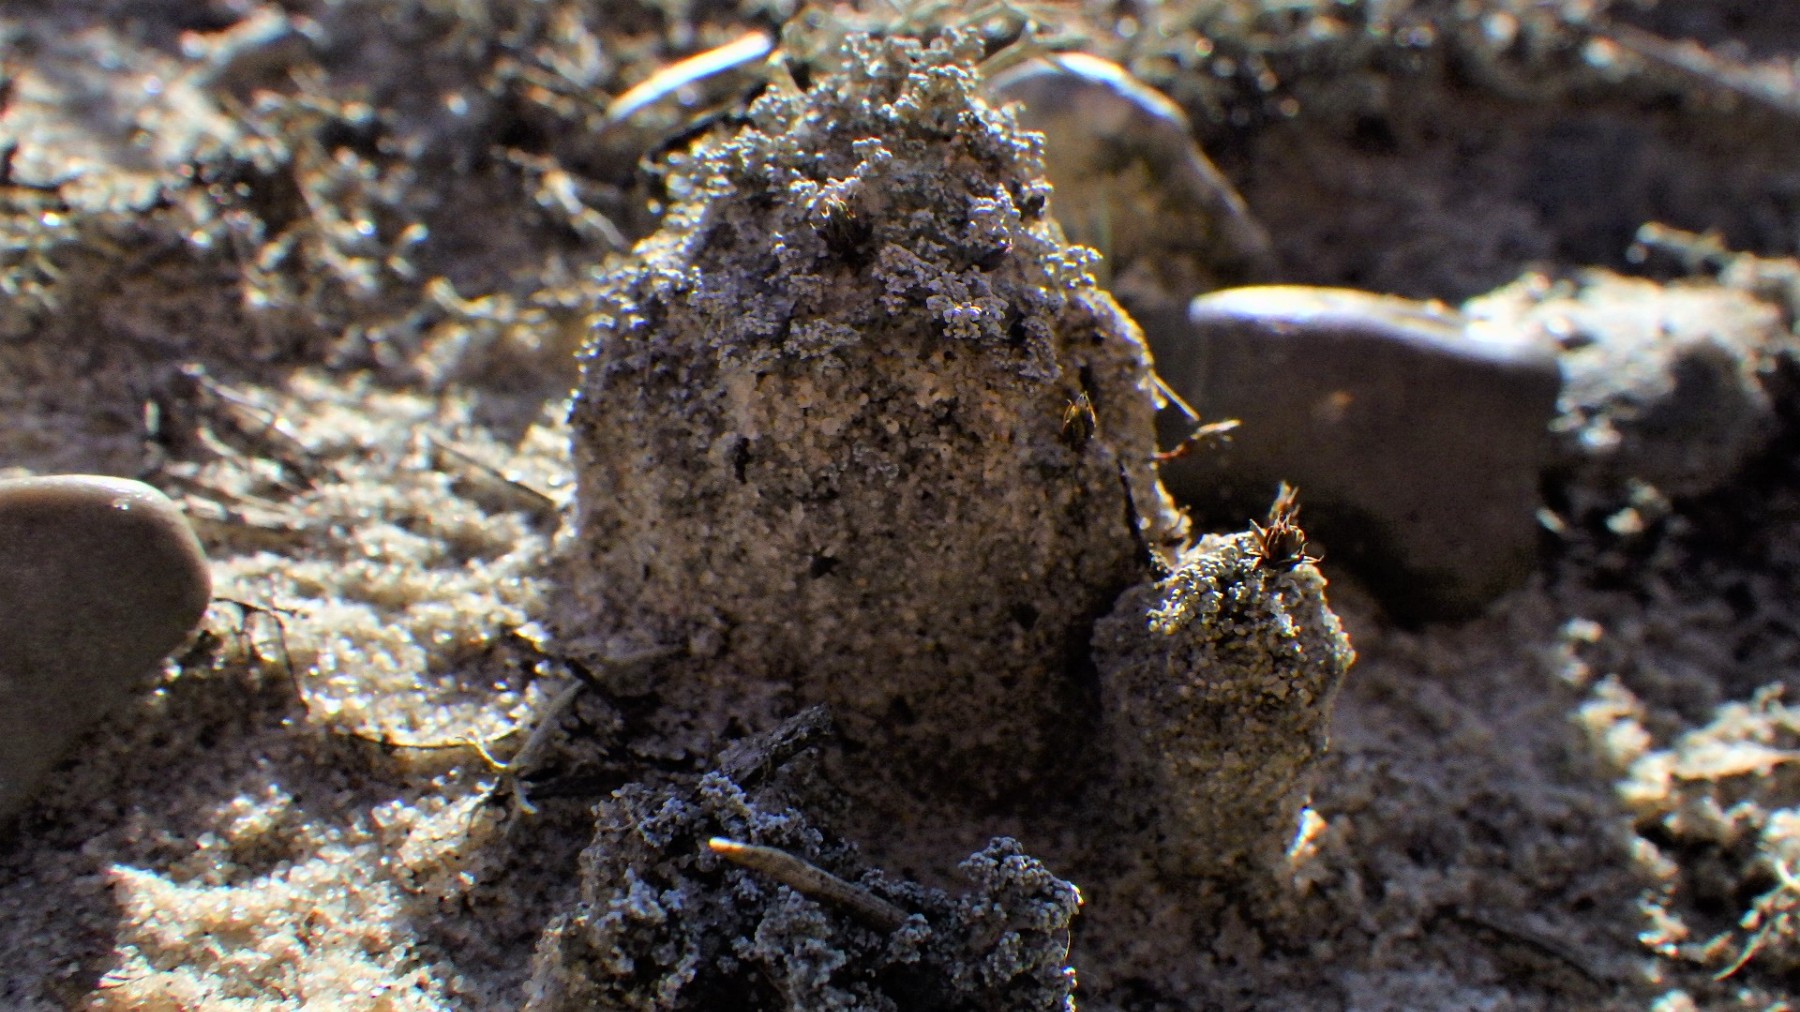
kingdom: Fungi
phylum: Ascomycota
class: Lecanoromycetes
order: Lecanorales
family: Stereocaulaceae
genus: Stereocaulon
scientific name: Stereocaulon condensatum
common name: lav korallav
